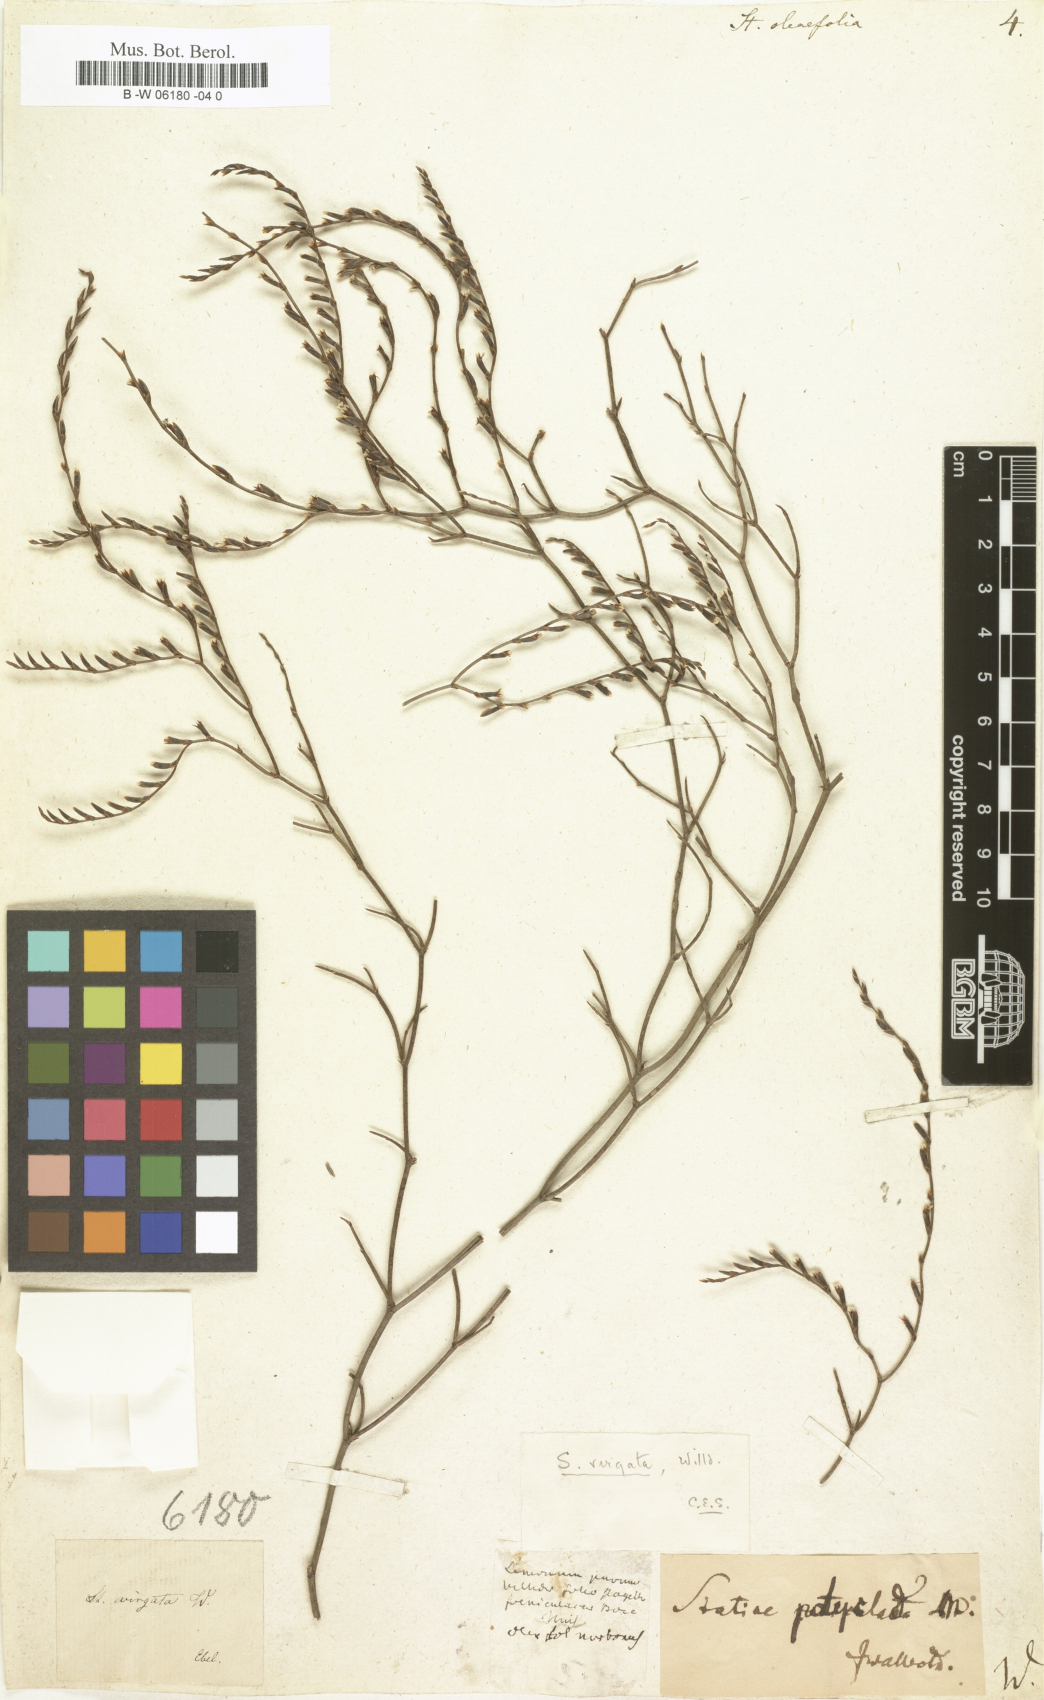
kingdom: Plantae
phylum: Tracheophyta
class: Magnoliopsida
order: Caryophyllales
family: Plumbaginaceae
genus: Limonium
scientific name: Limonium
